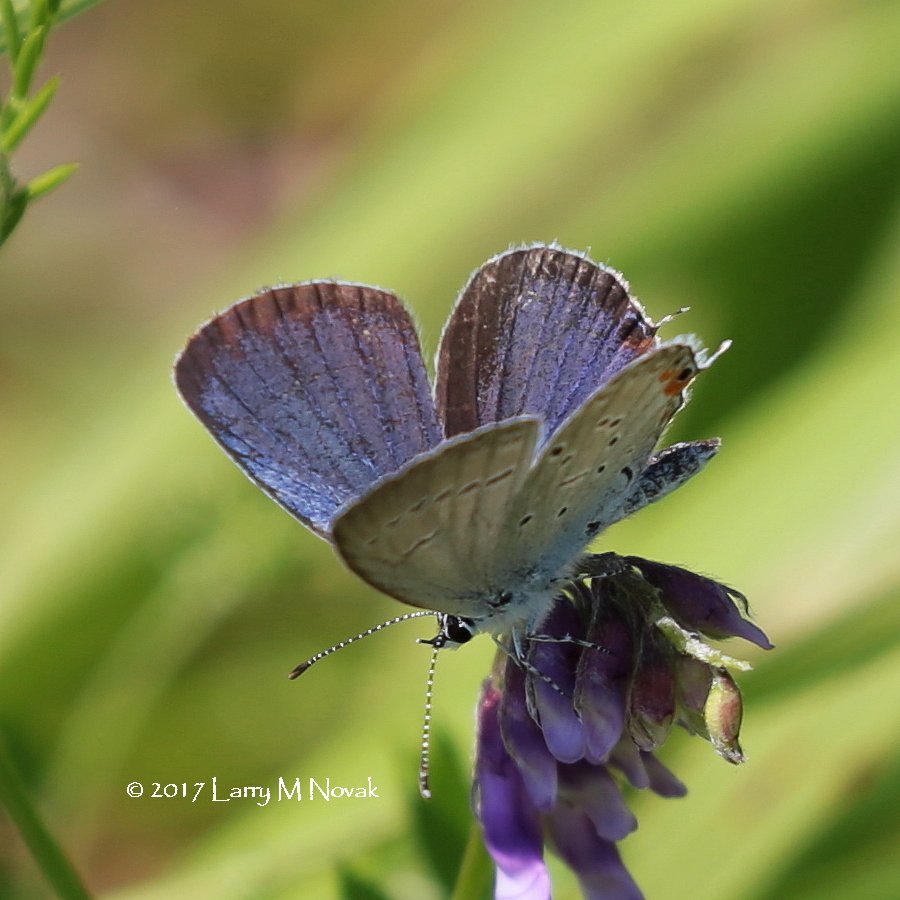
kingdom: Animalia
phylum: Arthropoda
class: Insecta
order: Lepidoptera
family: Lycaenidae
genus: Elkalyce
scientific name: Elkalyce comyntas
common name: Eastern Tailed-Blue
